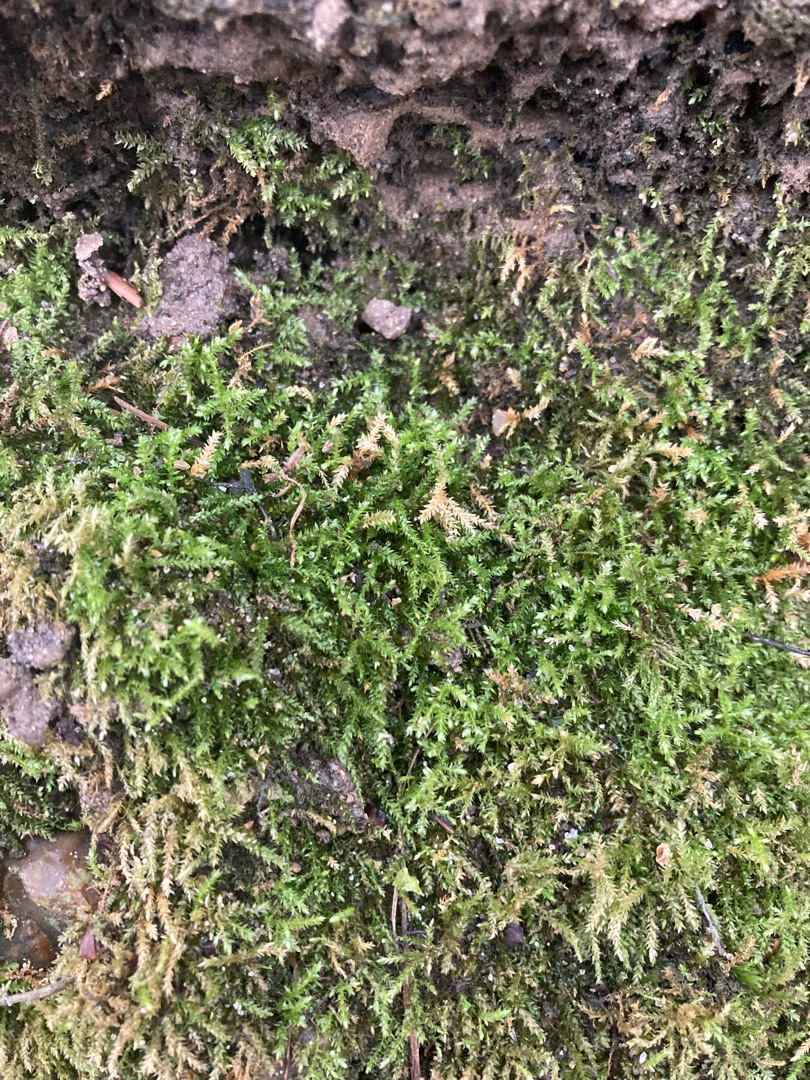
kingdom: Plantae
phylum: Bryophyta
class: Bryopsida
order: Hypnales
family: Brachytheciaceae
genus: Oxyrrhynchium
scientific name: Oxyrrhynchium hians
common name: Ler-vortetand
